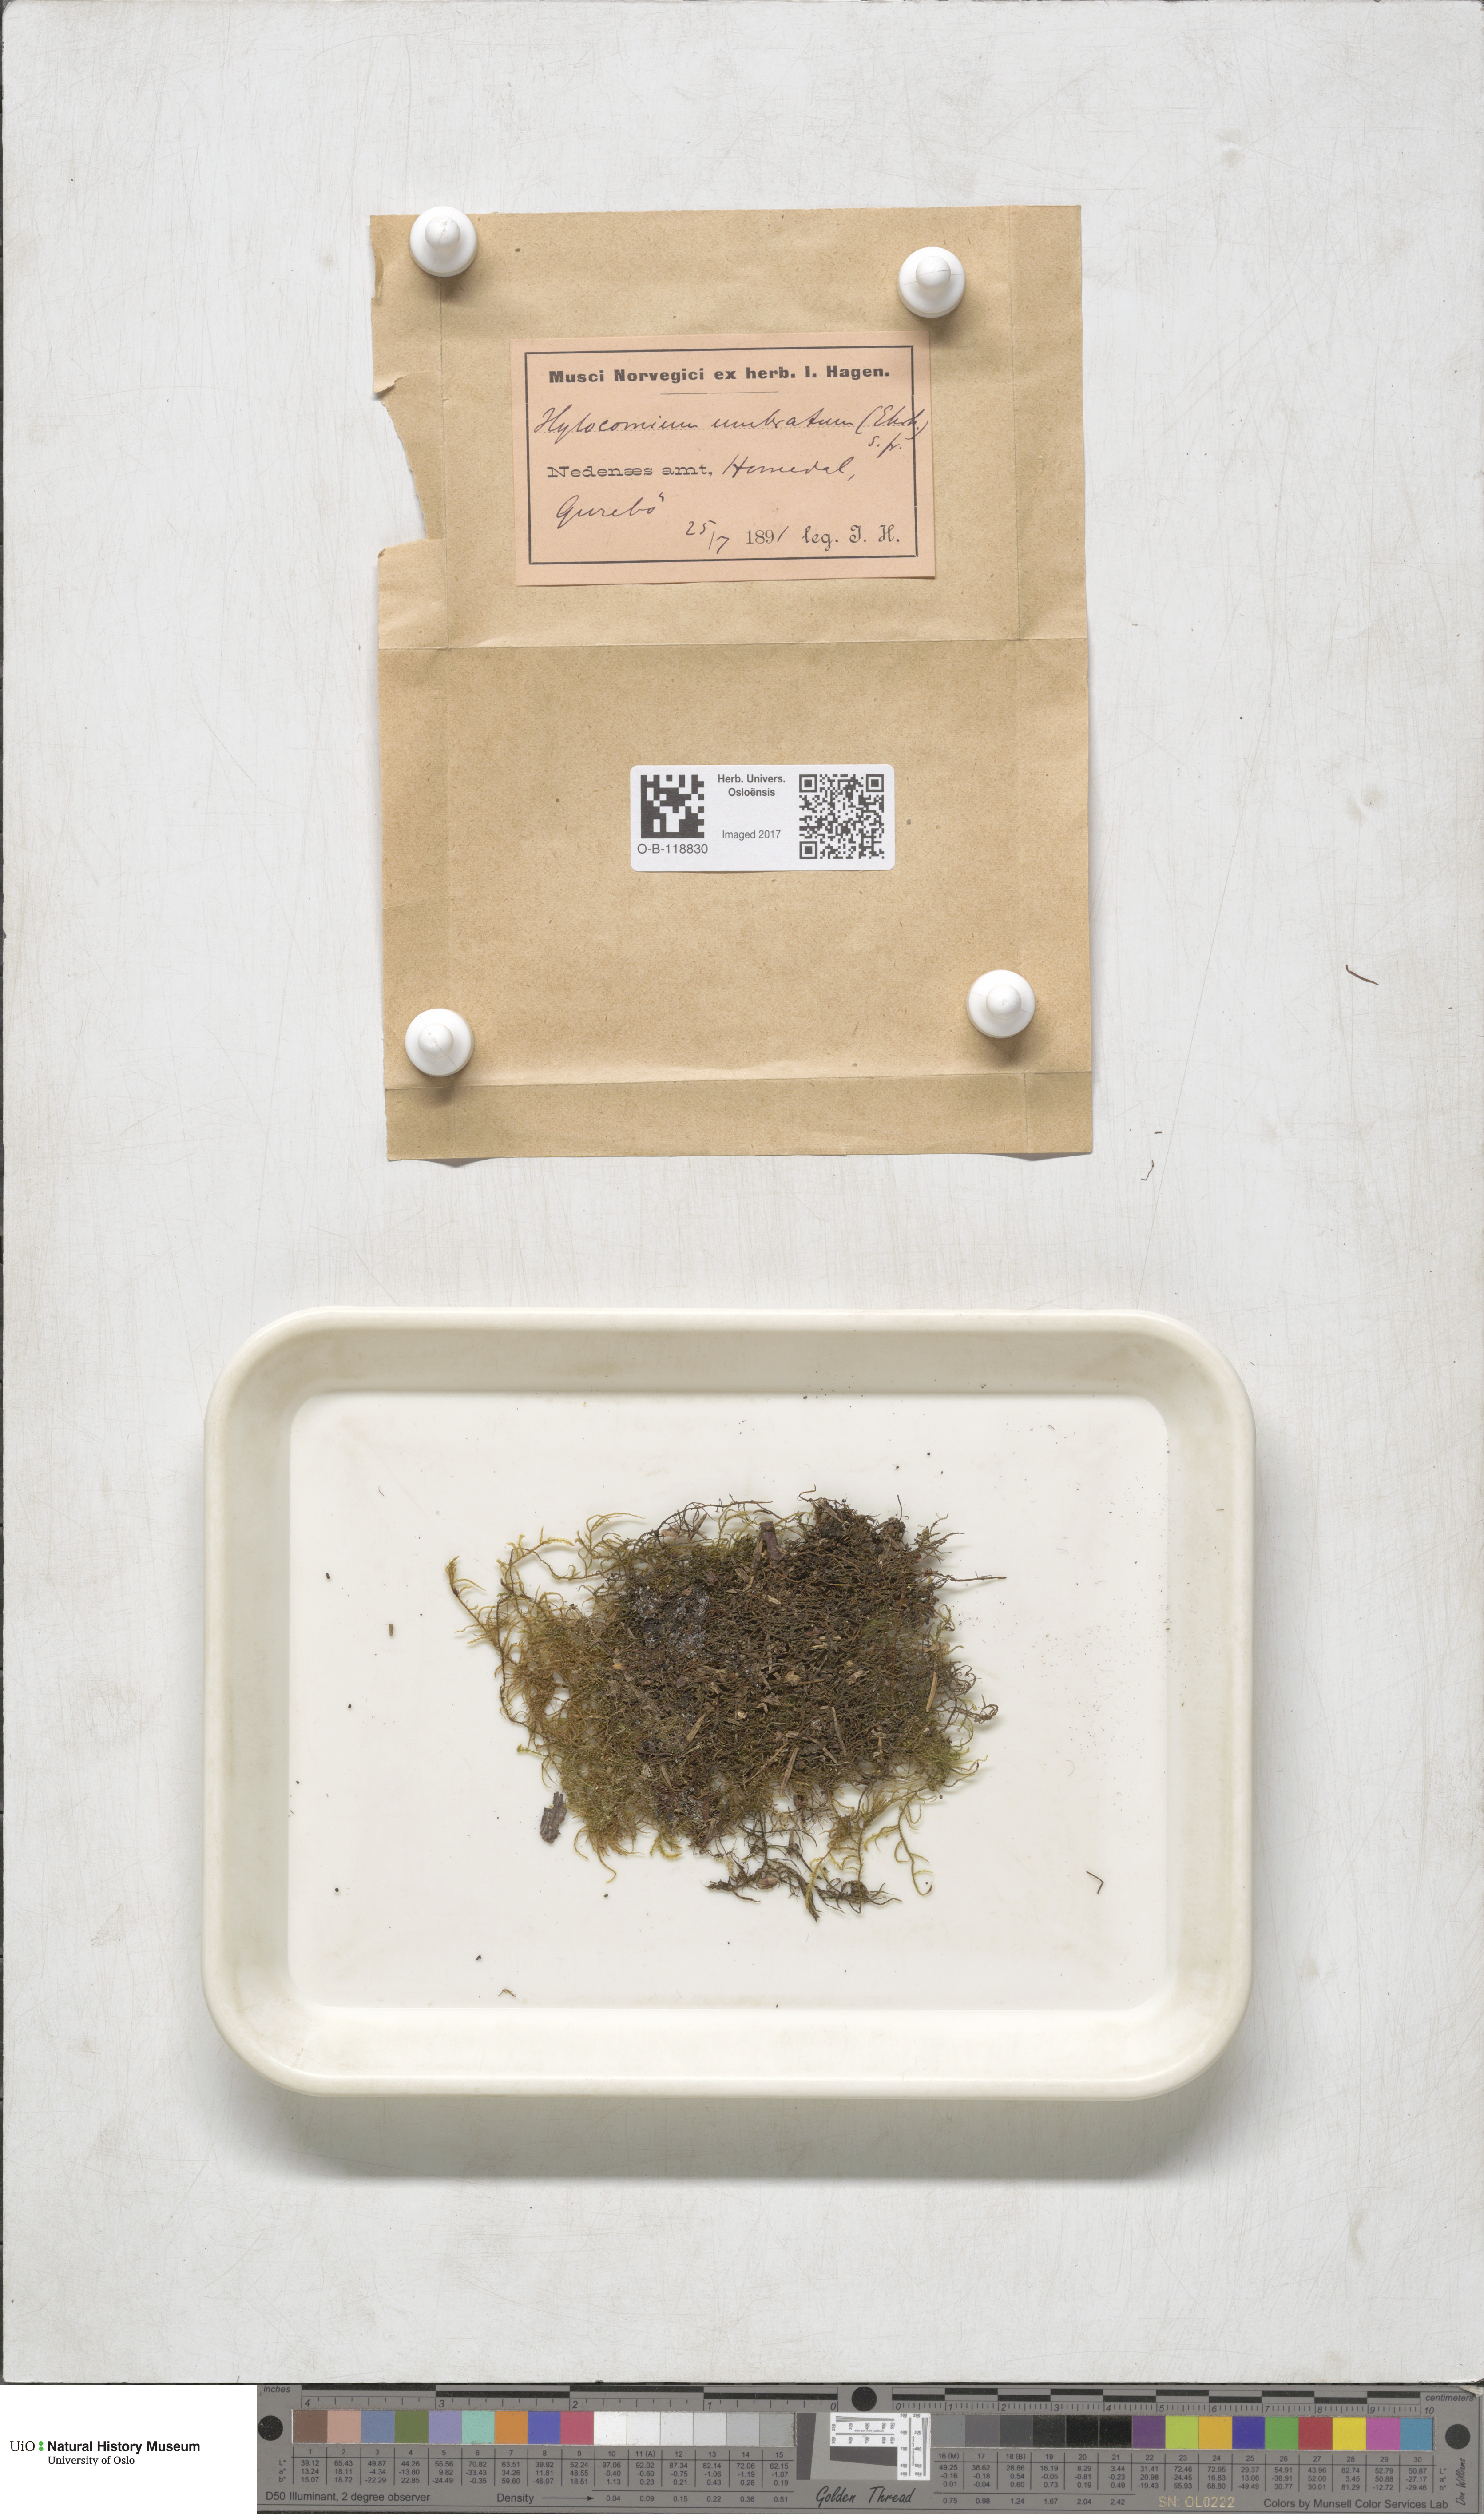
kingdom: Plantae
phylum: Bryophyta
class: Bryopsida
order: Hypnales
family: Hylocomiaceae
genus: Hylocomiastrum
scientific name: Hylocomiastrum umbratum
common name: Shaded woods moss
